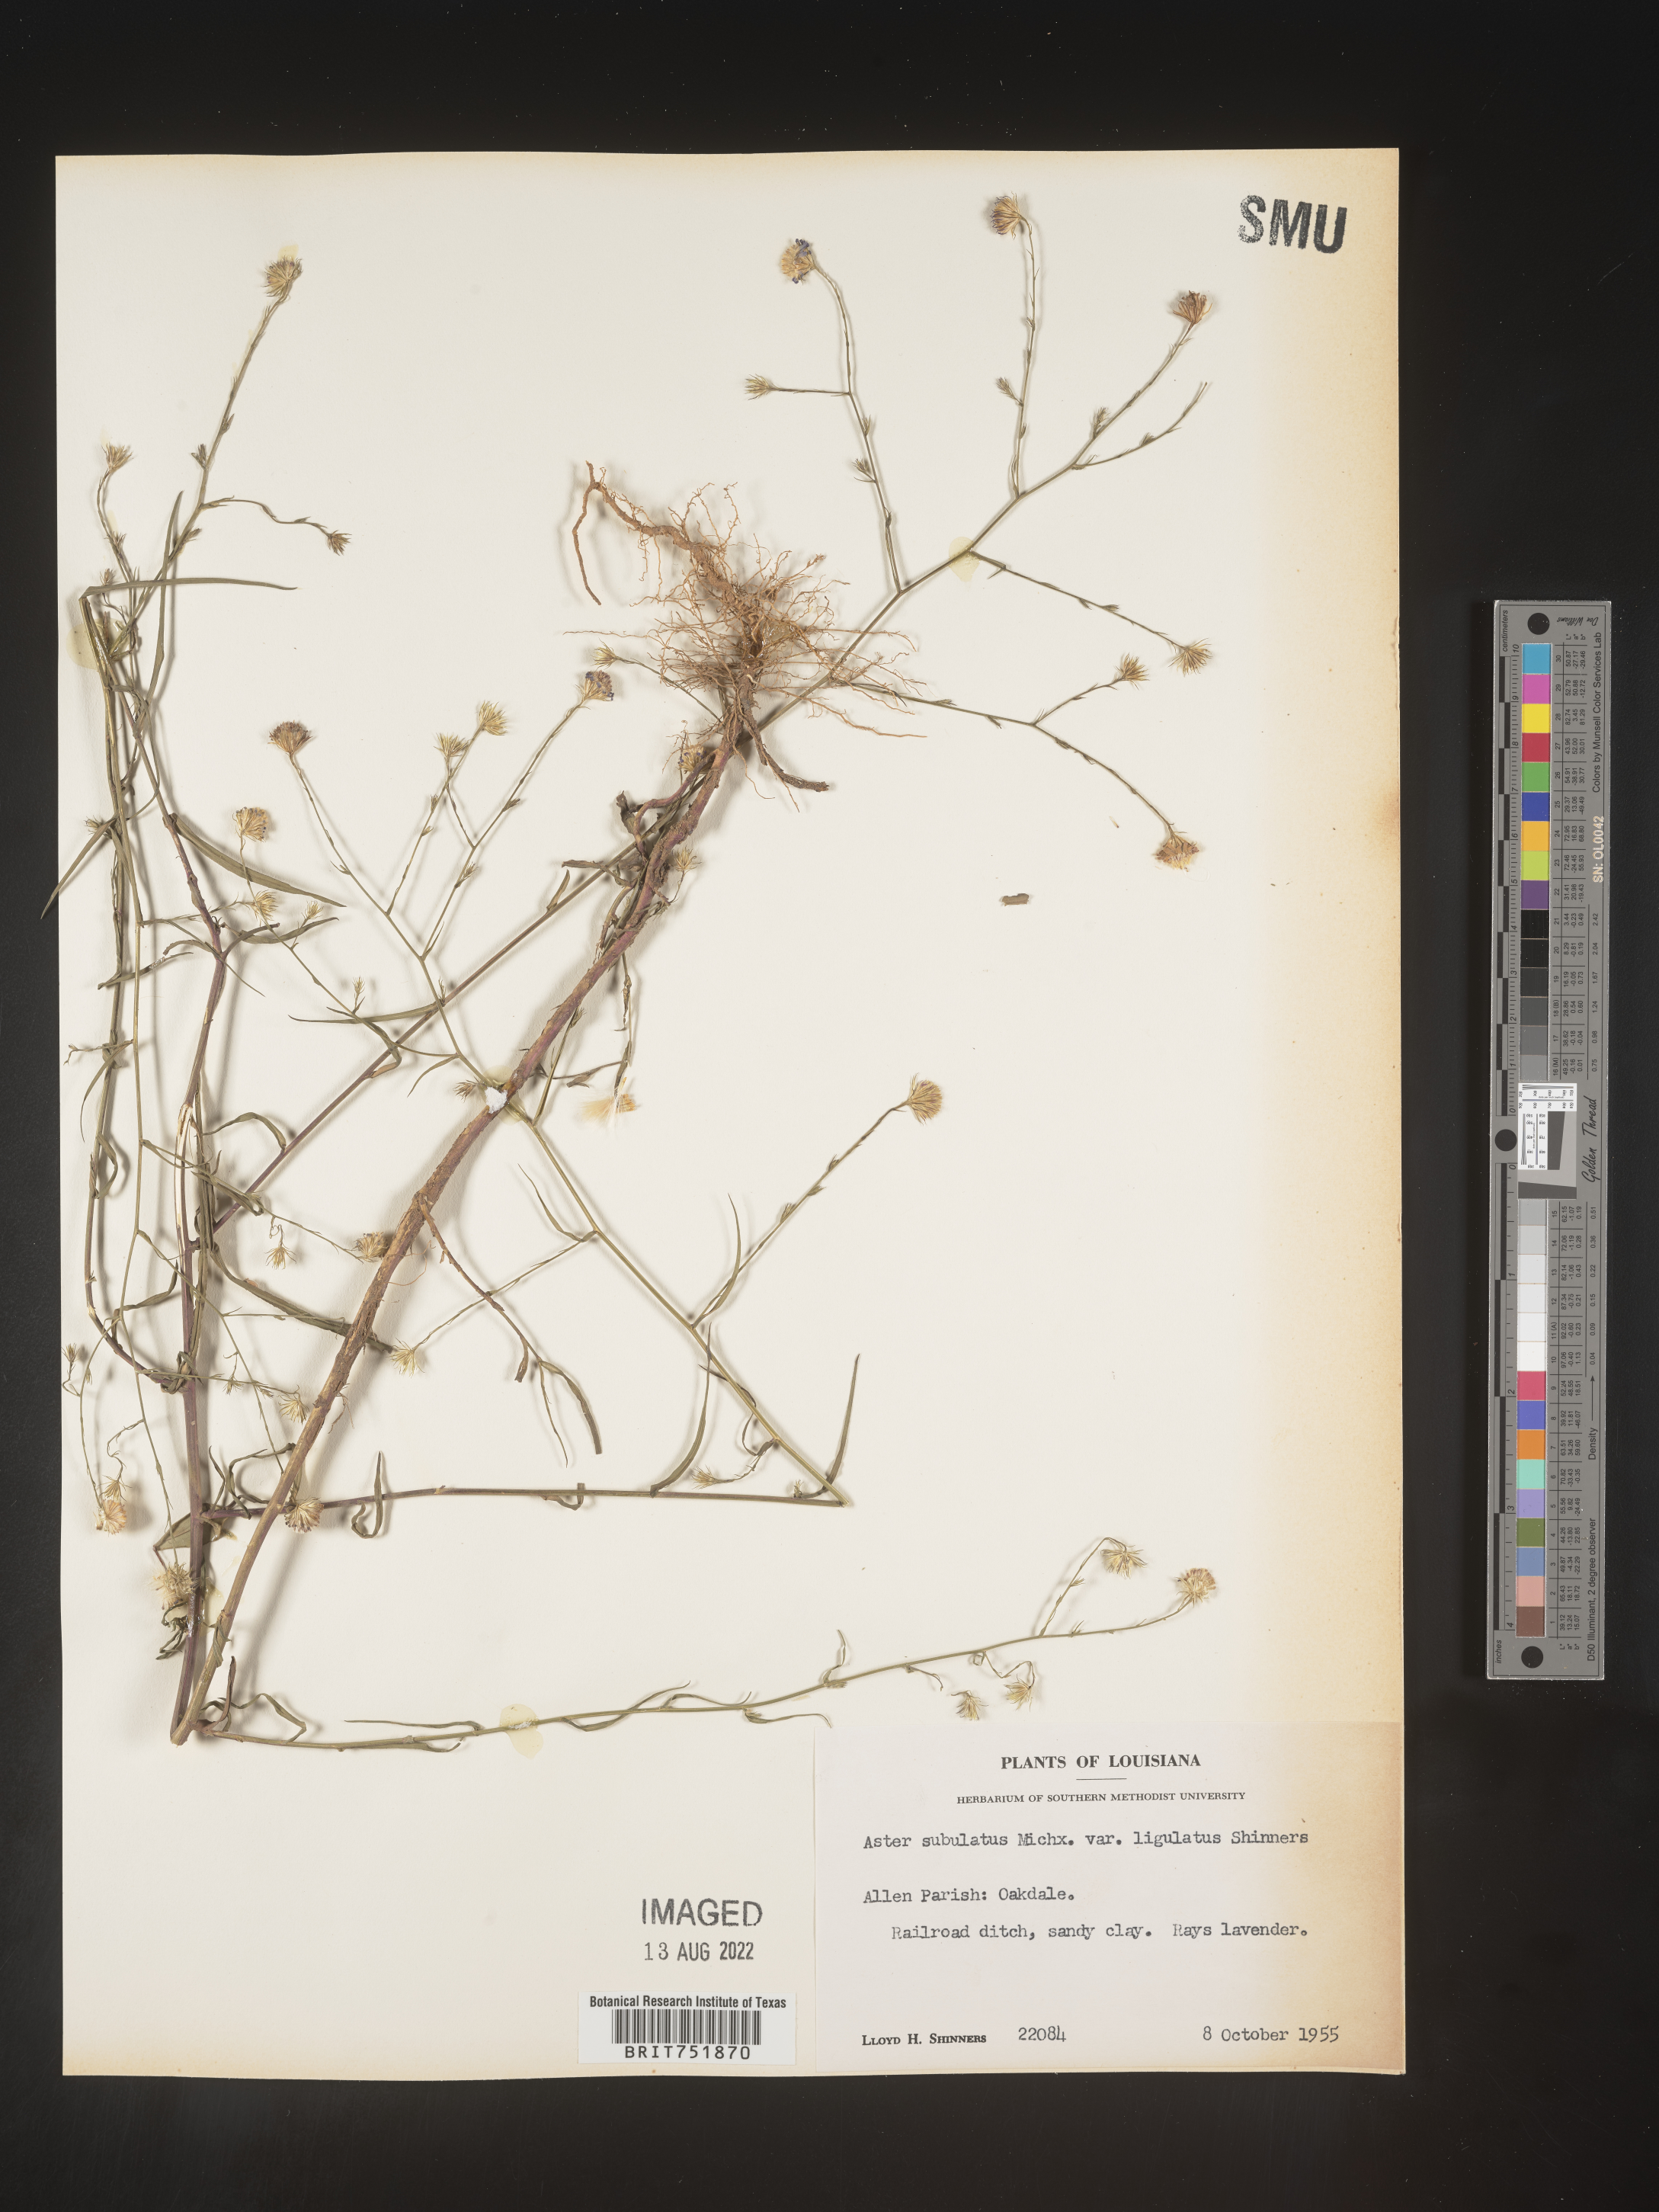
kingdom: Plantae
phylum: Tracheophyta
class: Magnoliopsida
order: Asterales
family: Asteraceae
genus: Symphyotrichum
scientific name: Symphyotrichum divaricatum
